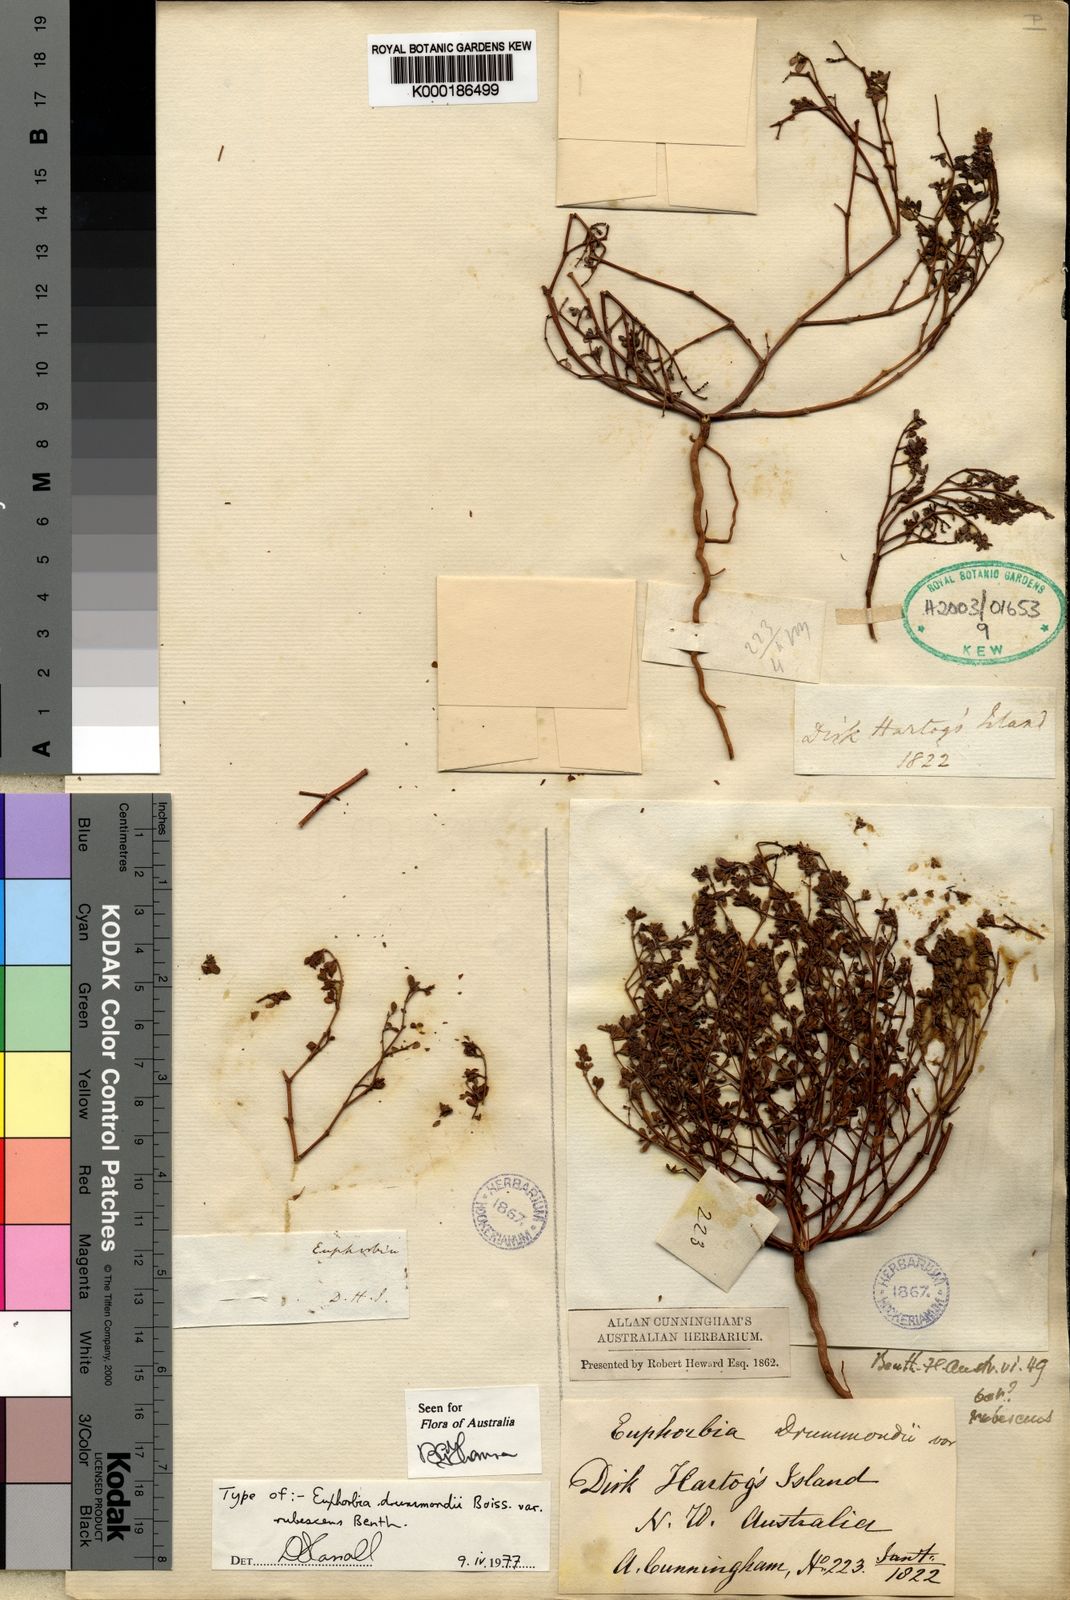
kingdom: Plantae
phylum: Tracheophyta
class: Magnoliopsida
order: Malpighiales
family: Euphorbiaceae
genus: Euphorbia
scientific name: Euphorbia sharkoensis
